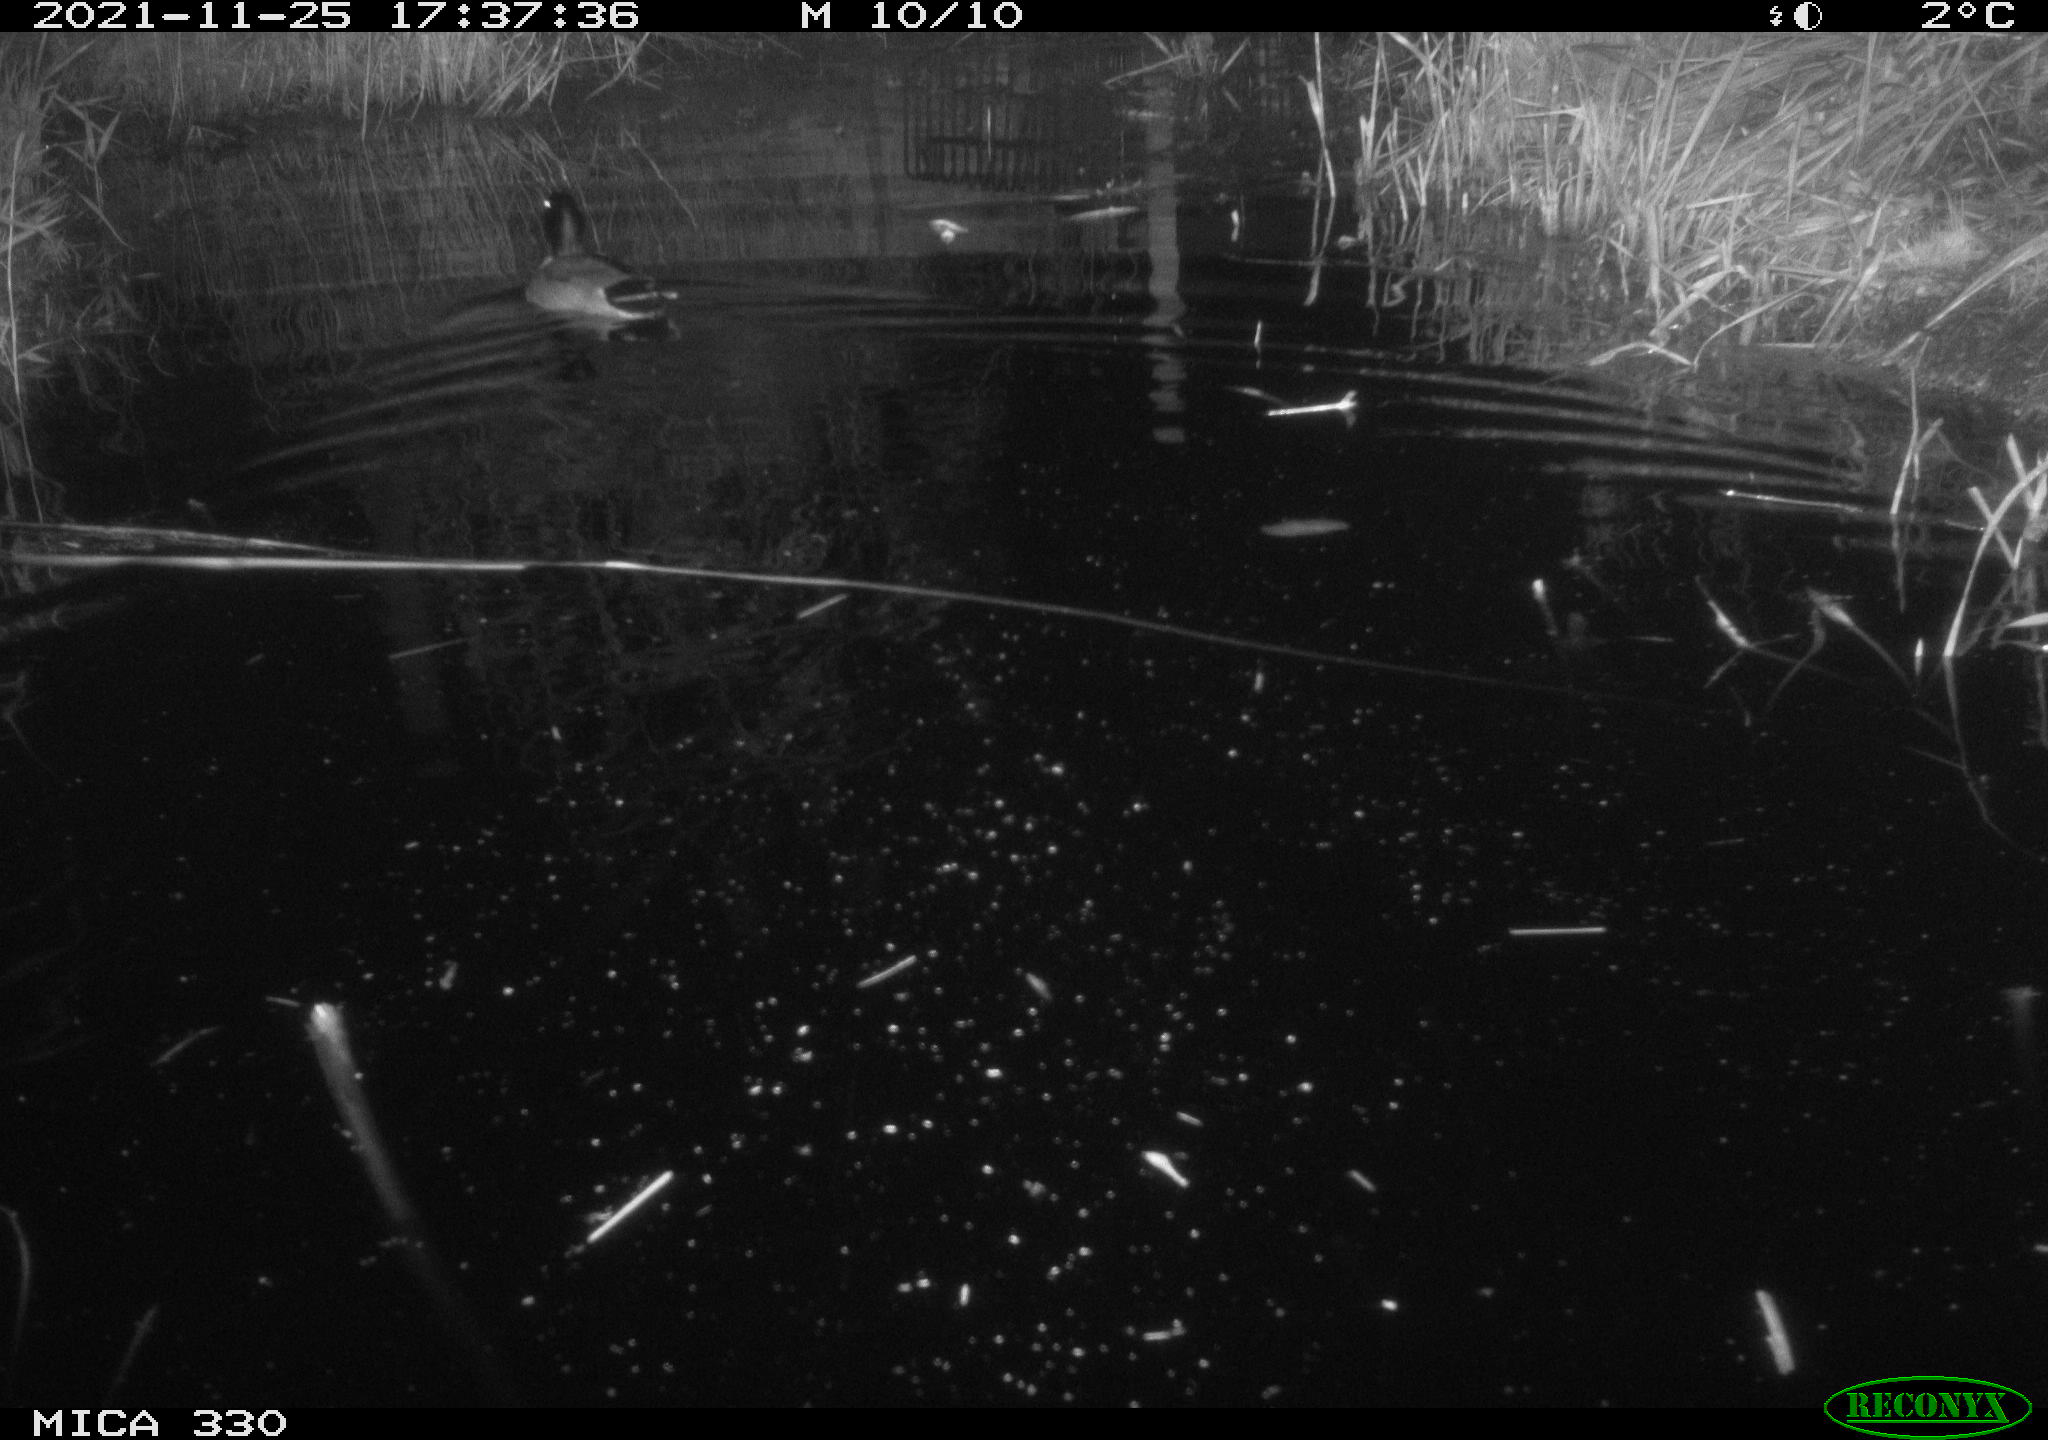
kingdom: Animalia
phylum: Chordata
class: Aves
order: Anseriformes
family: Anatidae
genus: Anas
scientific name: Anas platyrhynchos
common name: Mallard
